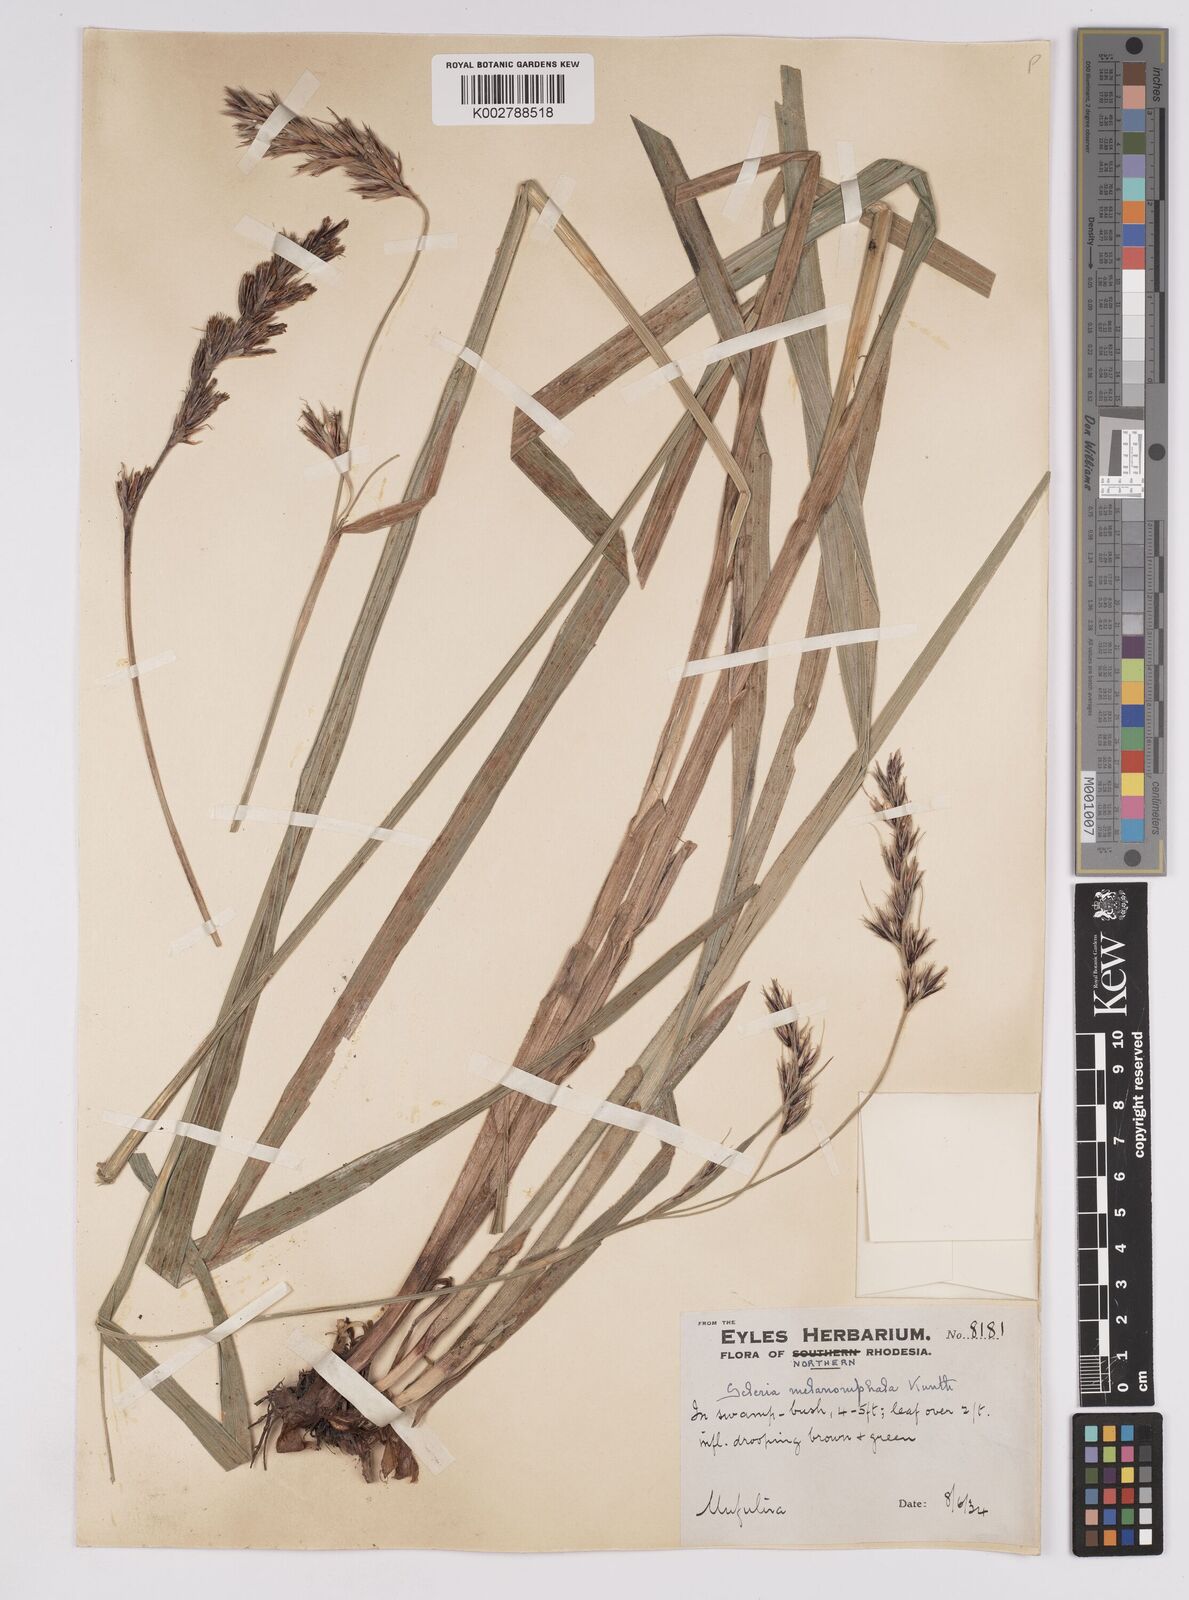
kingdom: Plantae
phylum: Tracheophyta
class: Liliopsida
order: Poales
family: Cyperaceae
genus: Scleria
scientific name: Scleria melanomphala
